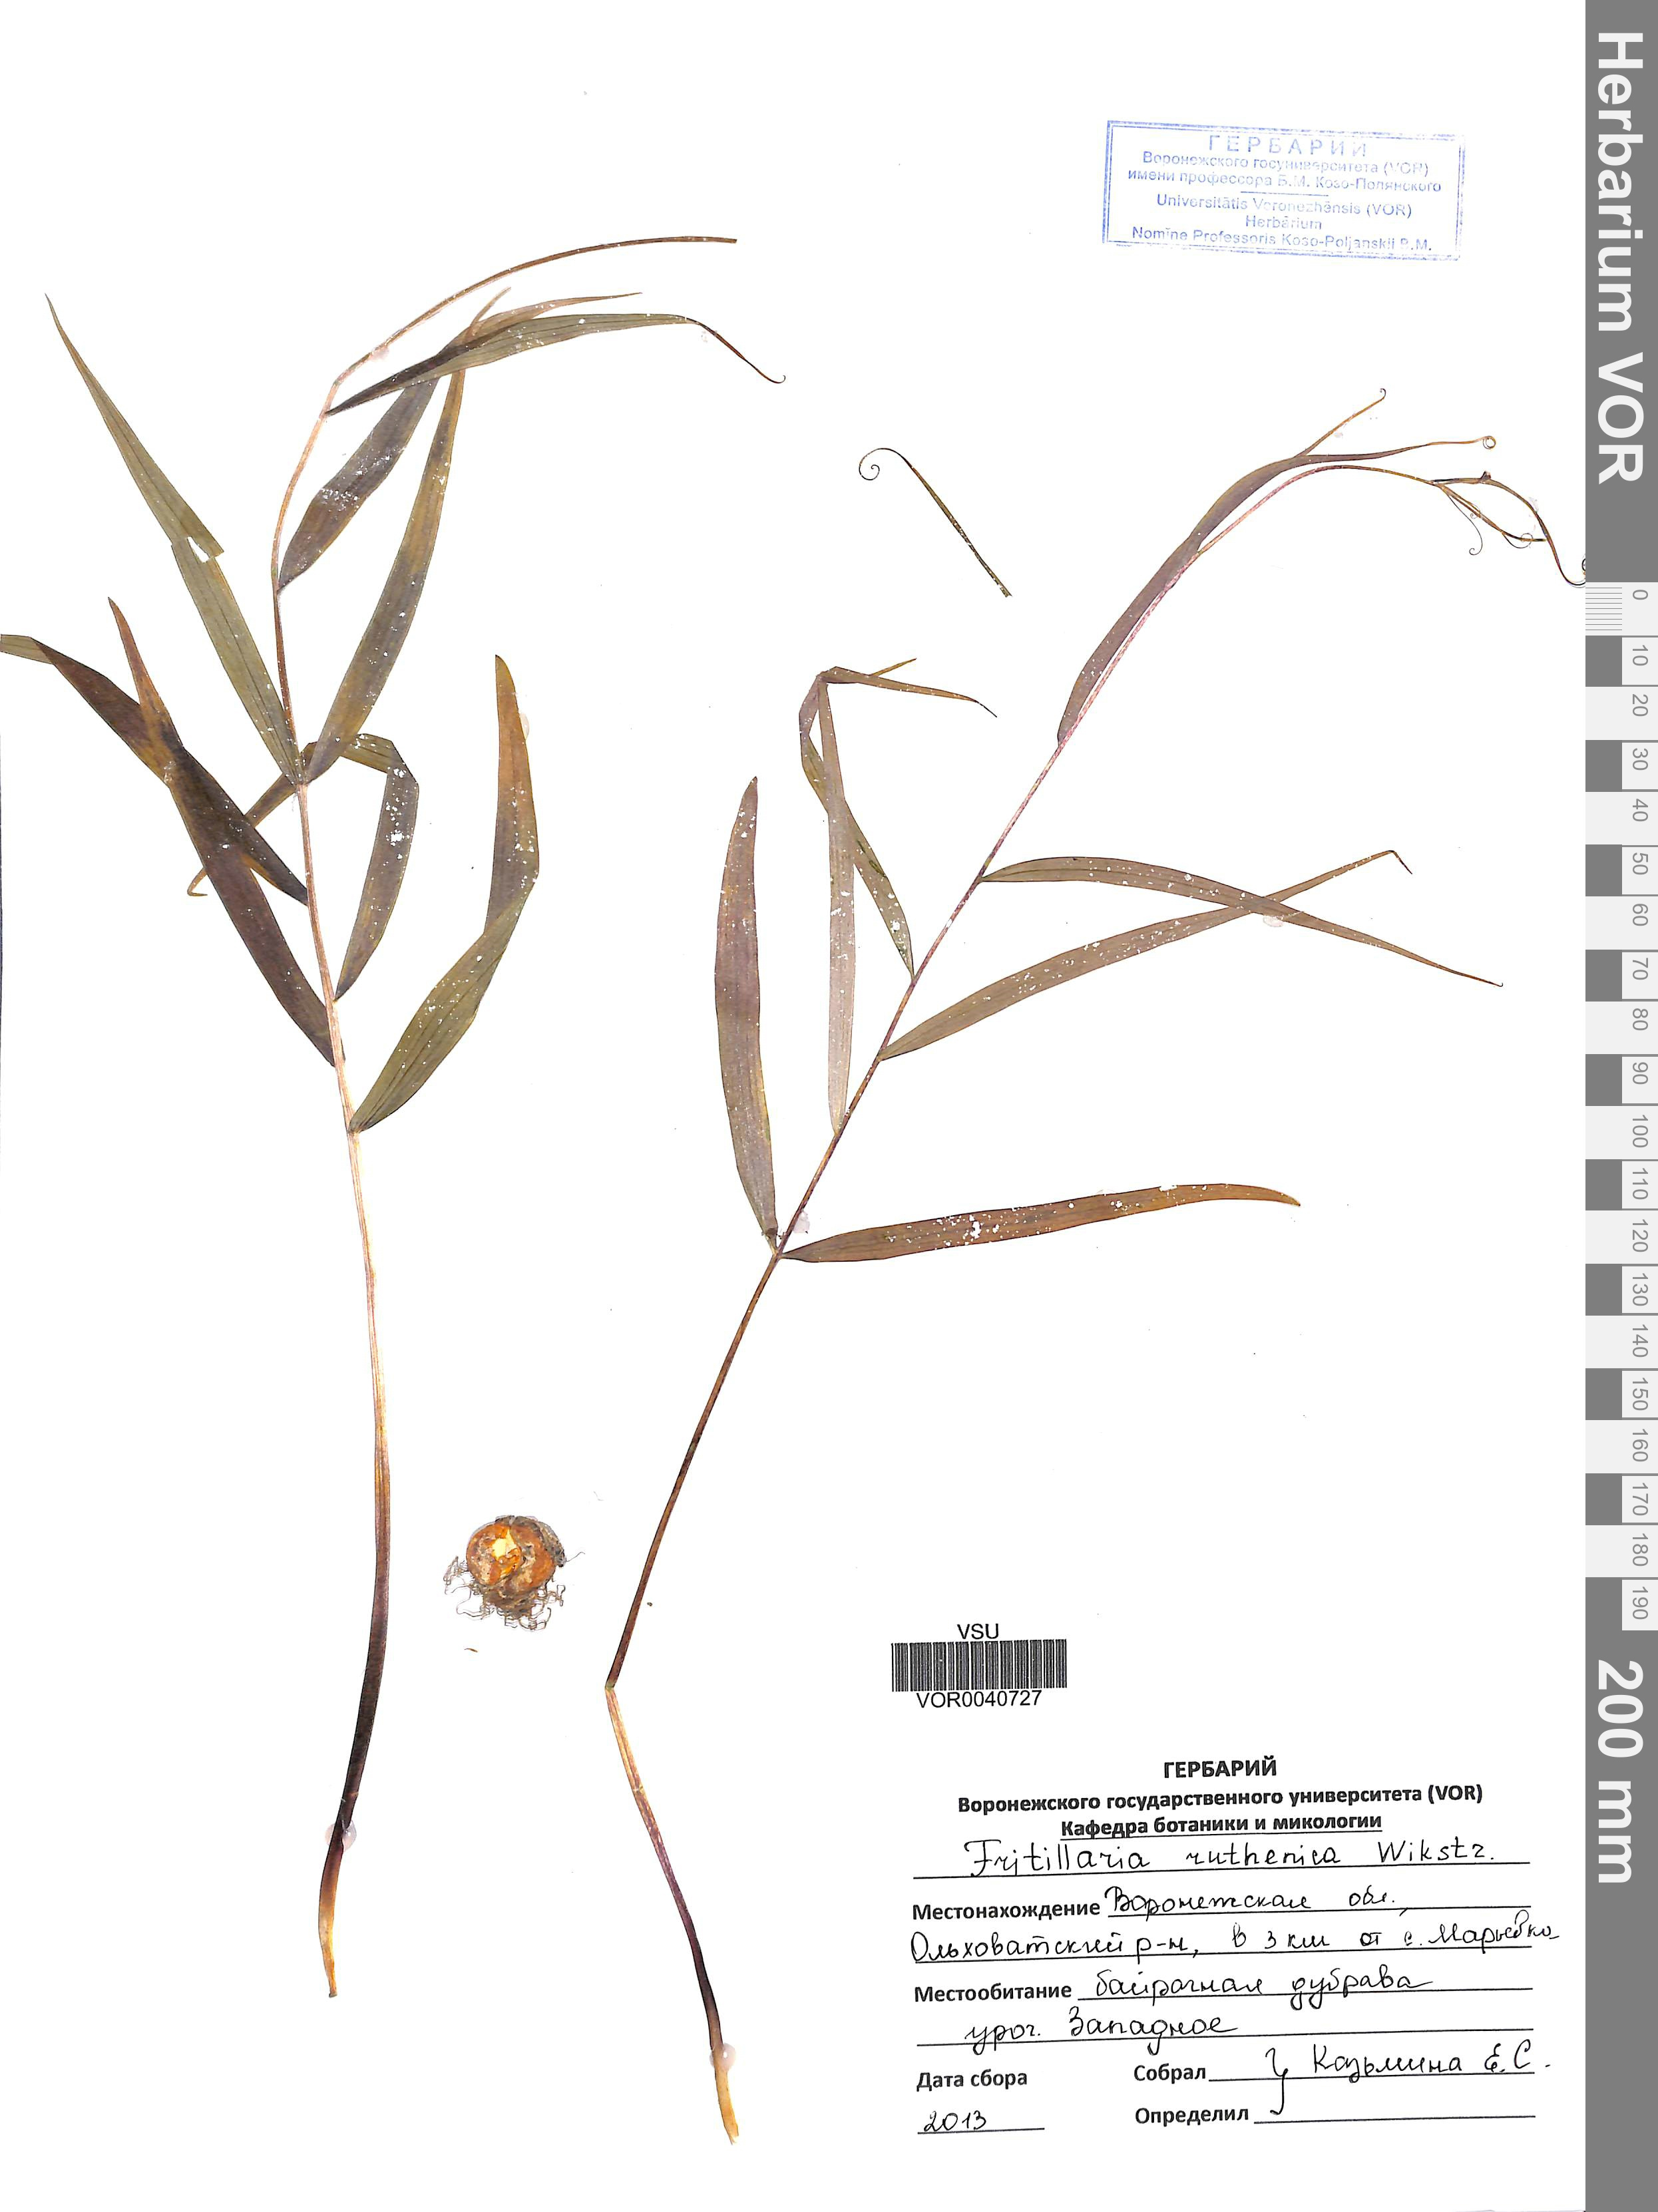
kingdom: Plantae
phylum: Tracheophyta
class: Liliopsida
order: Liliales
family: Liliaceae
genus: Fritillaria
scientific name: Fritillaria ruthenica
